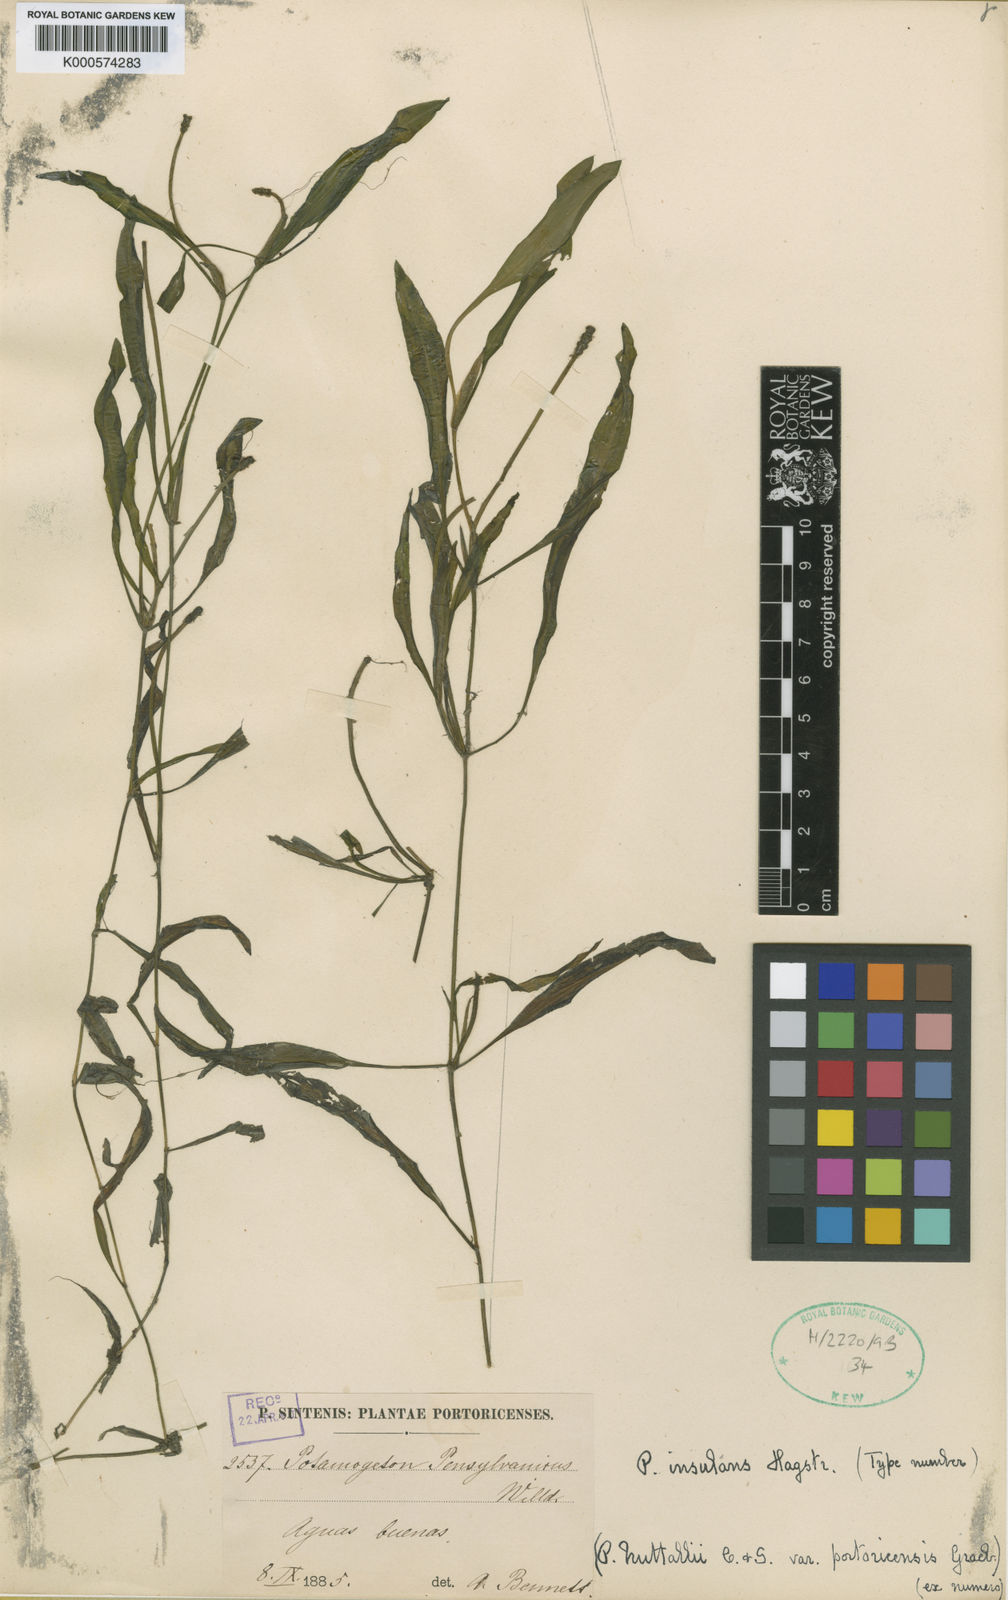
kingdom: Plantae
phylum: Tracheophyta
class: Liliopsida
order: Alismatales
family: Potamogetonaceae
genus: Potamogeton
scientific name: Potamogeton nodosus
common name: Loddon pondweed
